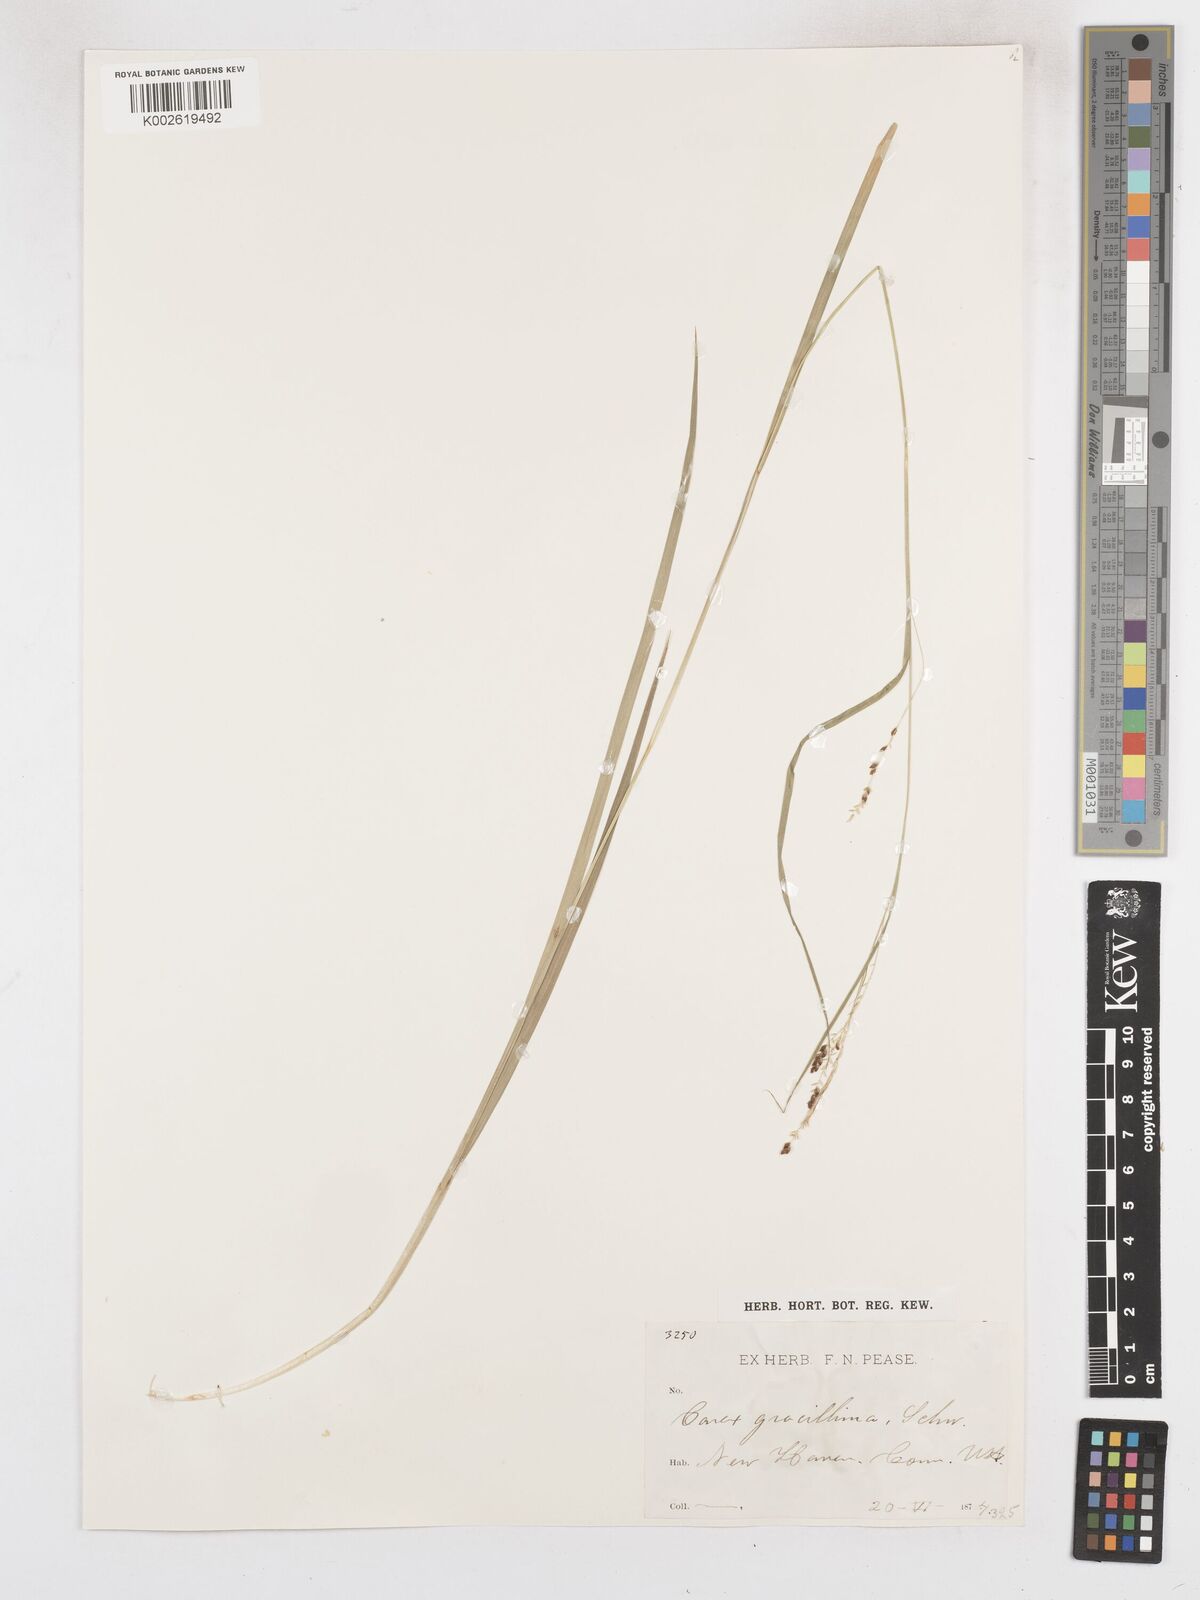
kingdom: Plantae
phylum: Tracheophyta
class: Liliopsida
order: Poales
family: Cyperaceae
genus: Carex
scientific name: Carex gracillima
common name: Graceful sedge
